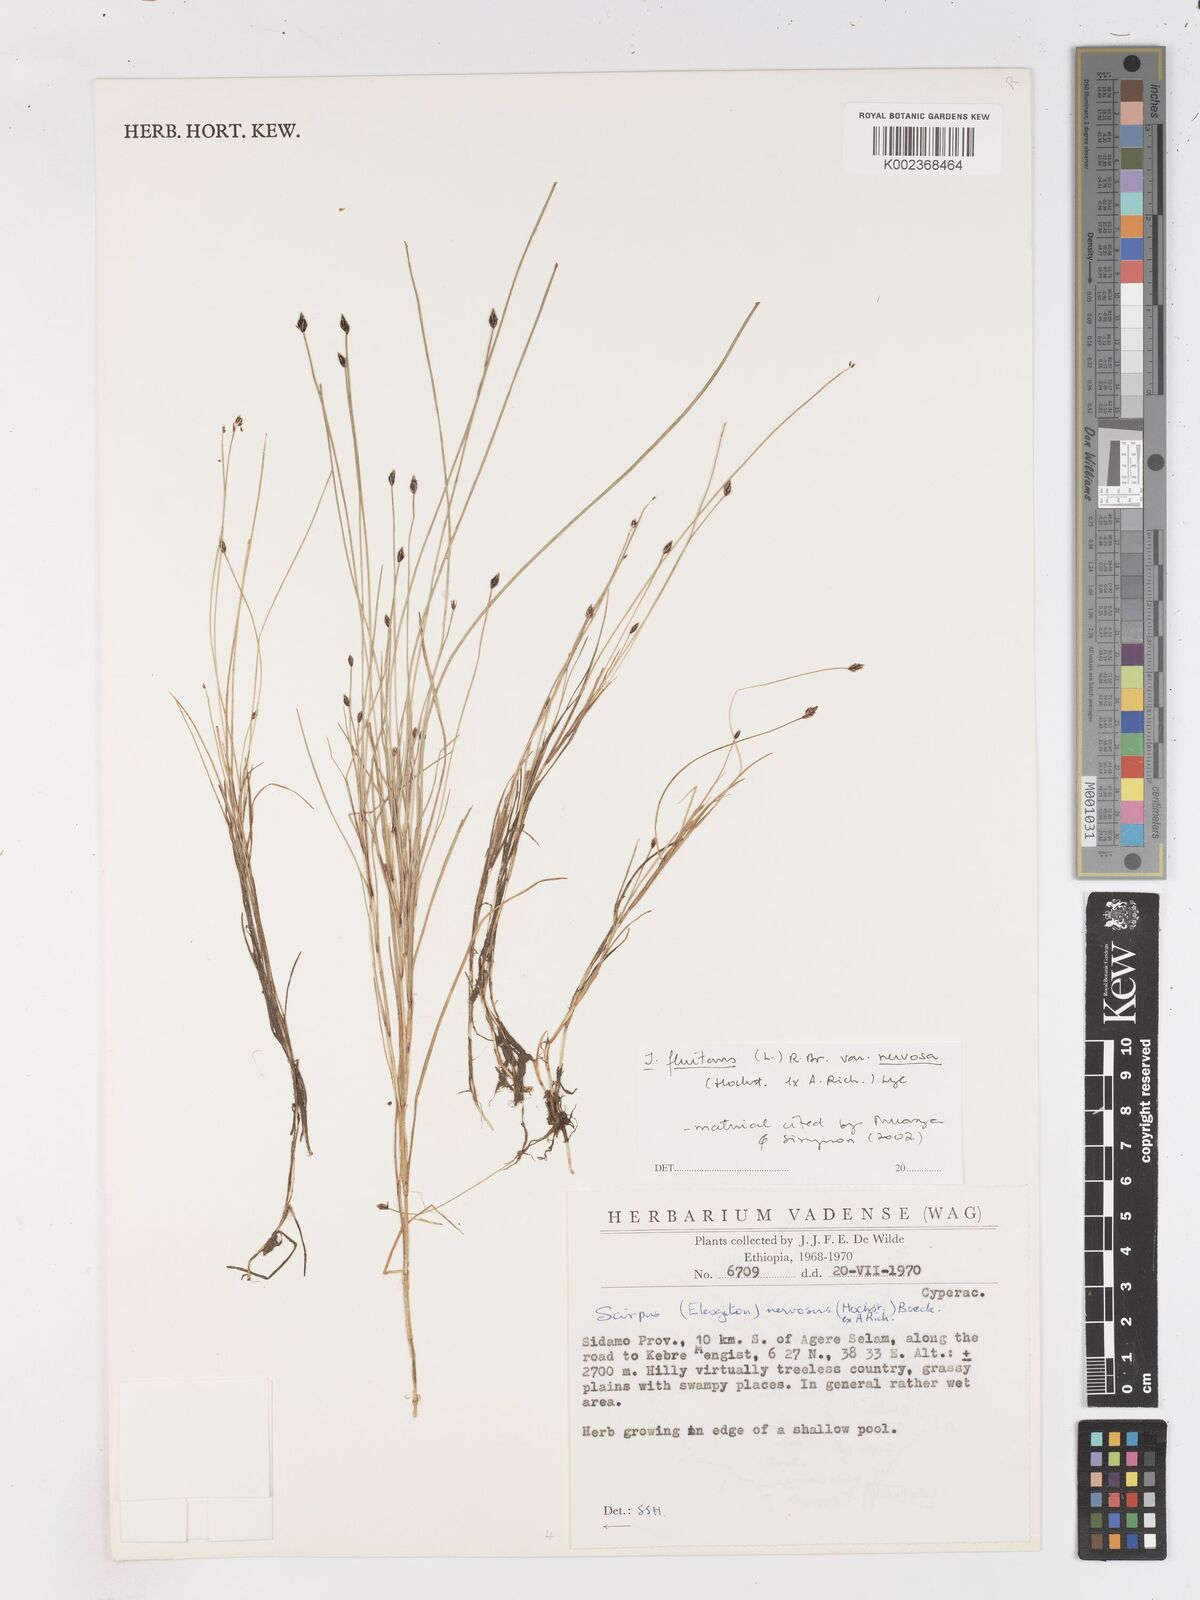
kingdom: Plantae
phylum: Tracheophyta
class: Liliopsida
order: Poales
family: Cyperaceae
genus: Isolepis
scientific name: Isolepis fluitans
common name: Floating club-rush
